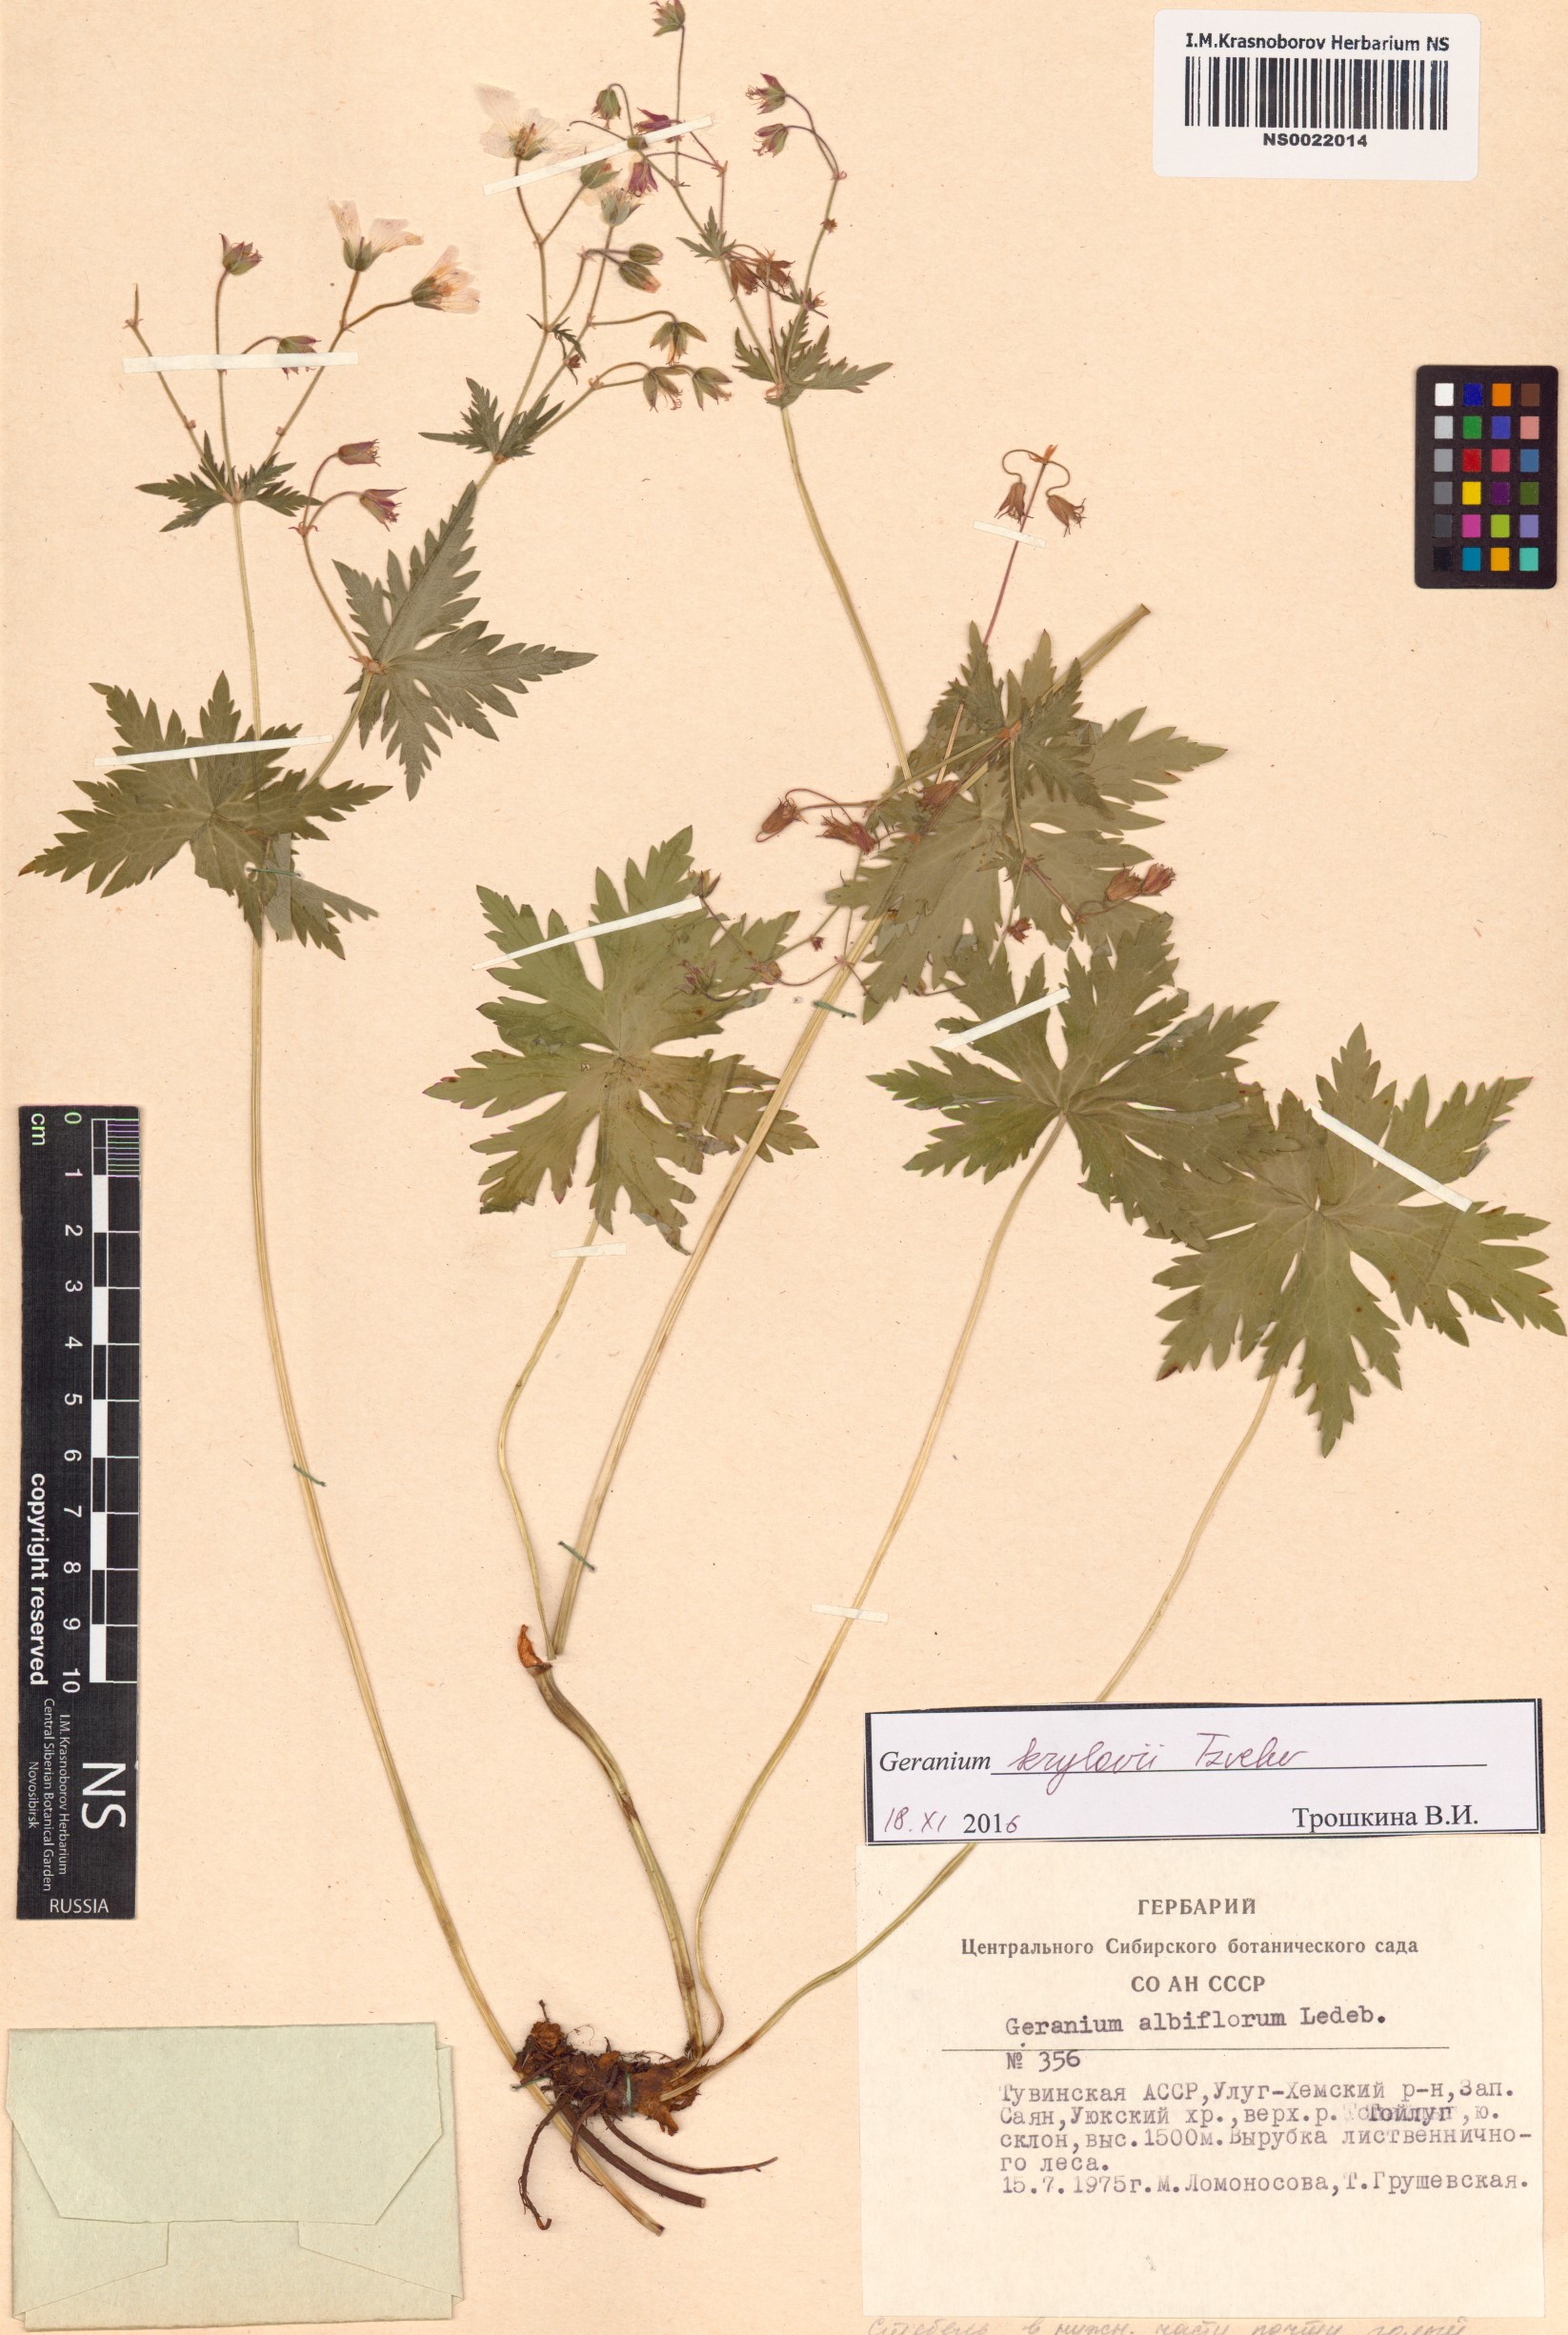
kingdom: Plantae
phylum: Tracheophyta
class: Magnoliopsida
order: Geraniales
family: Geraniaceae
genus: Geranium
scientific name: Geranium sylvaticum
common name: Wood crane's-bill
